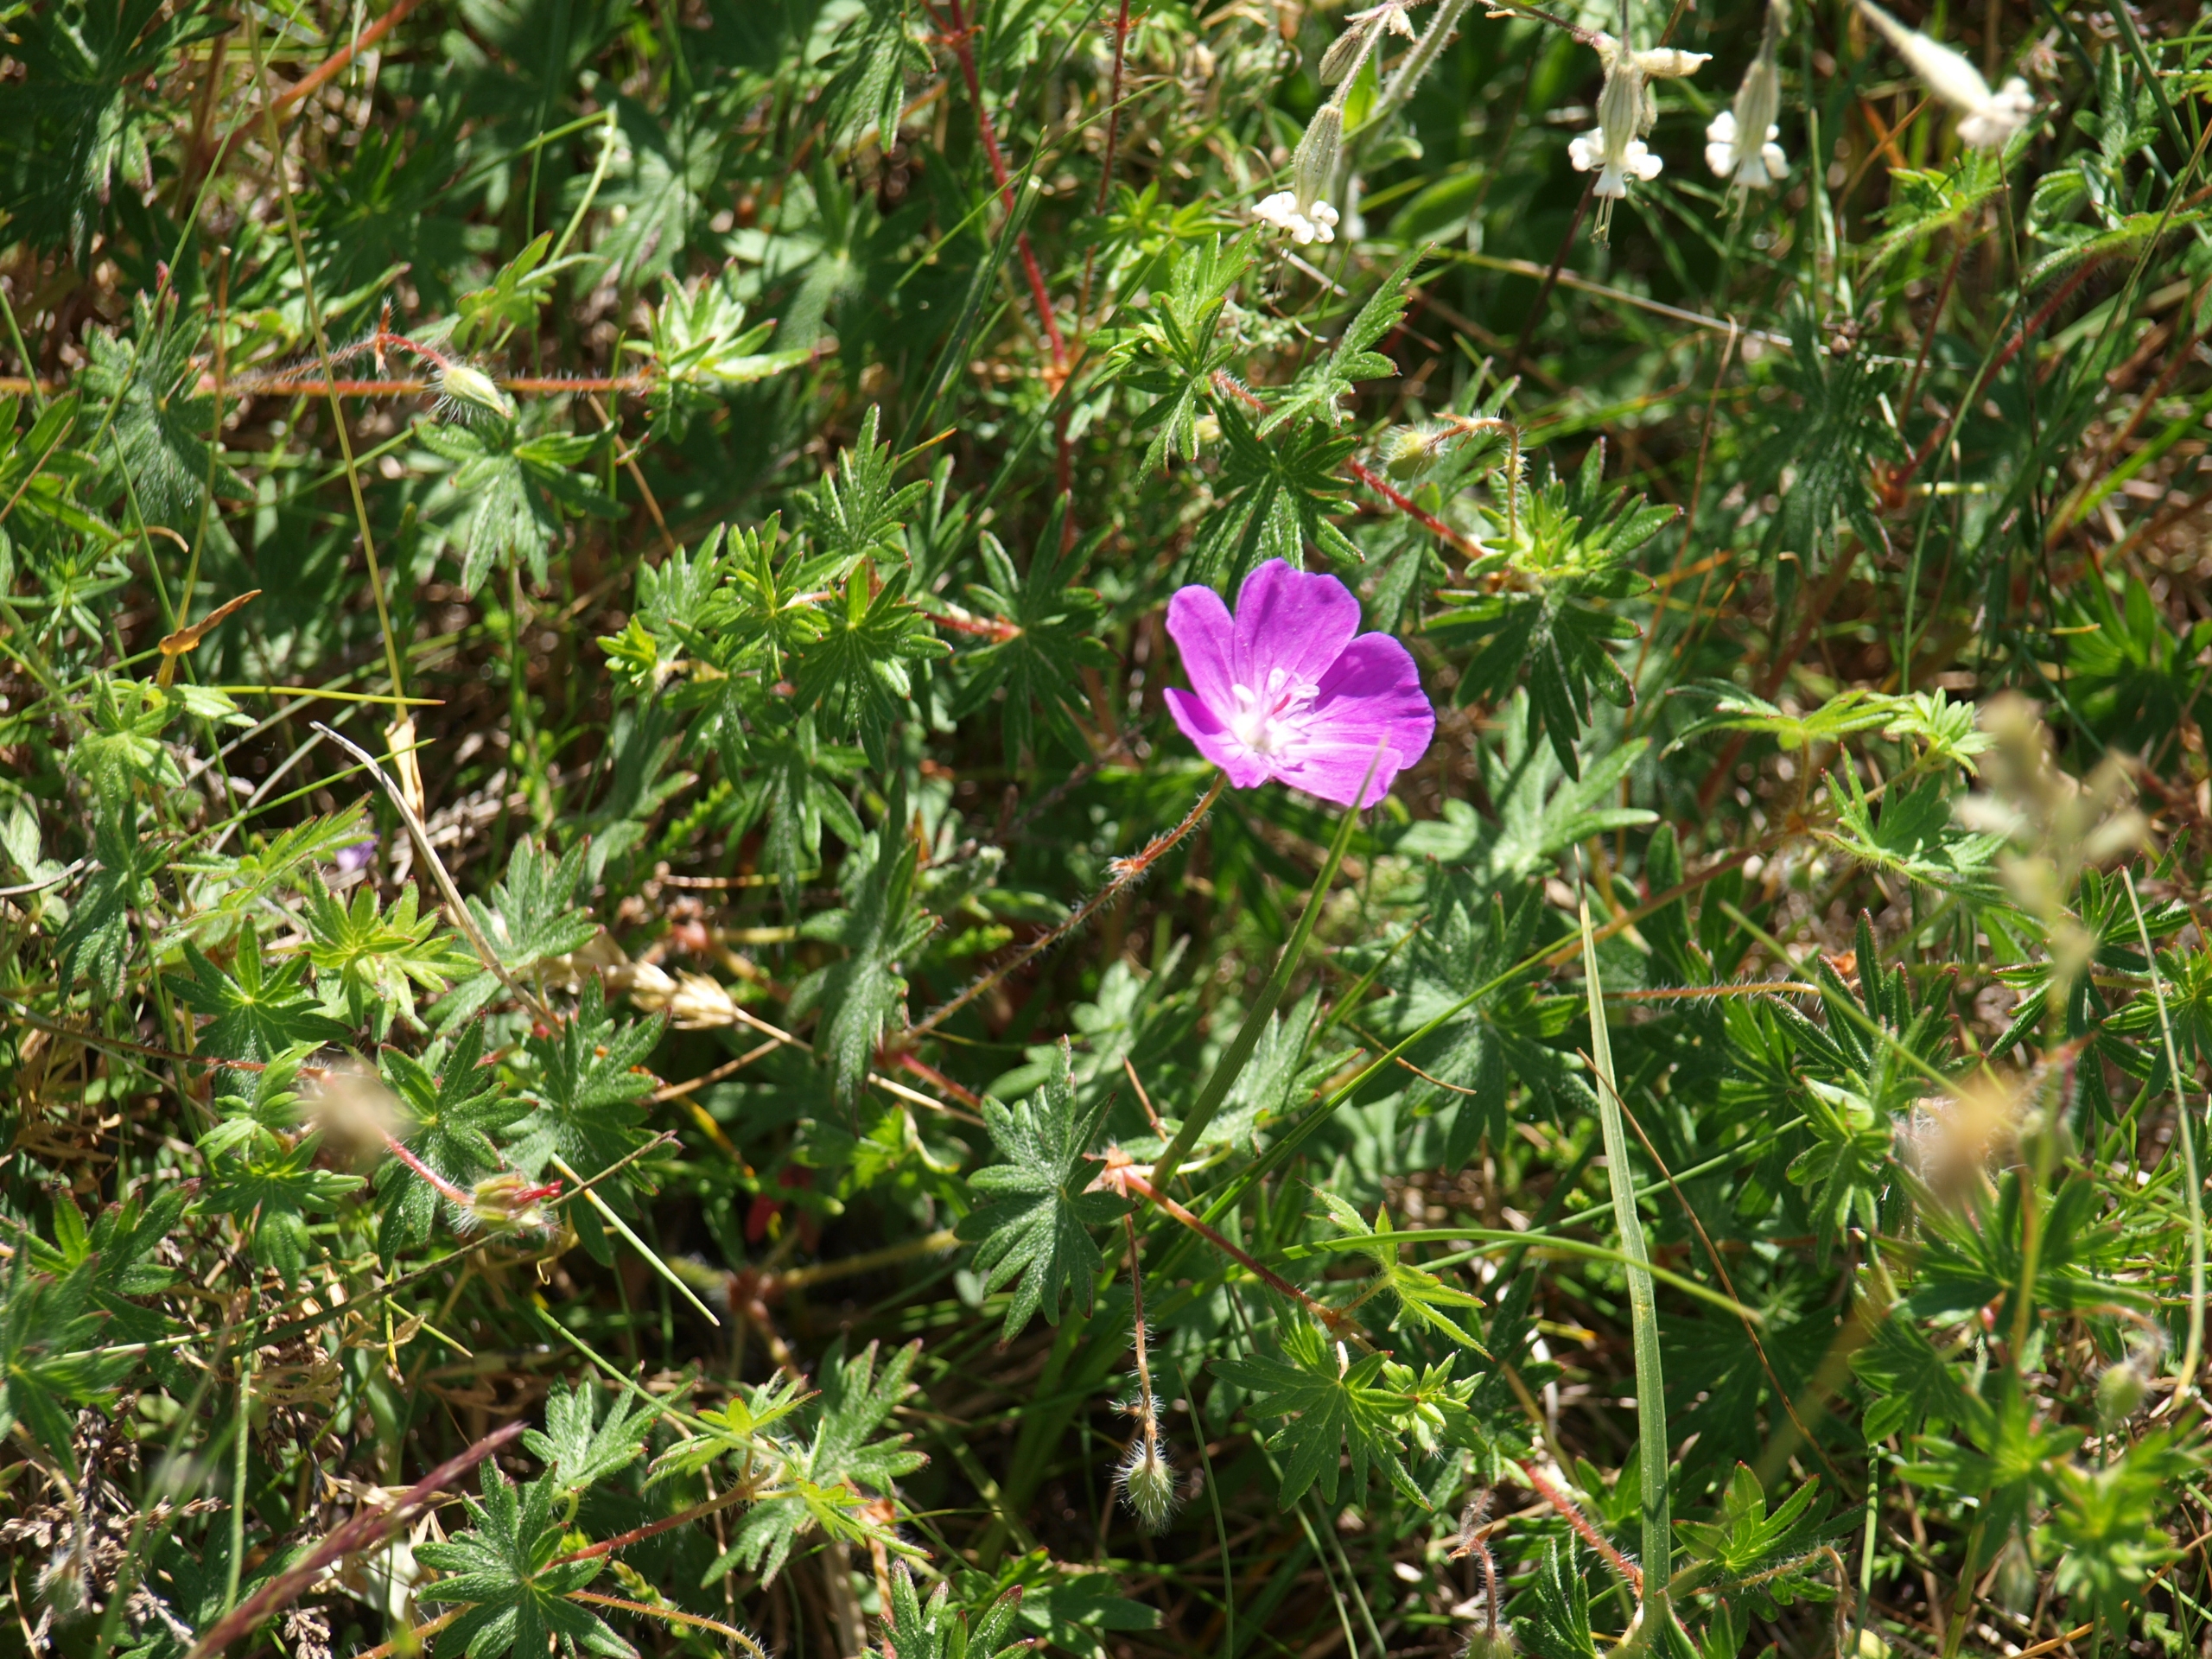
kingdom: Plantae
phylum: Tracheophyta
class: Magnoliopsida
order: Geraniales
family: Geraniaceae
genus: Geranium
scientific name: Geranium sanguineum
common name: Blodrød storkenæb
